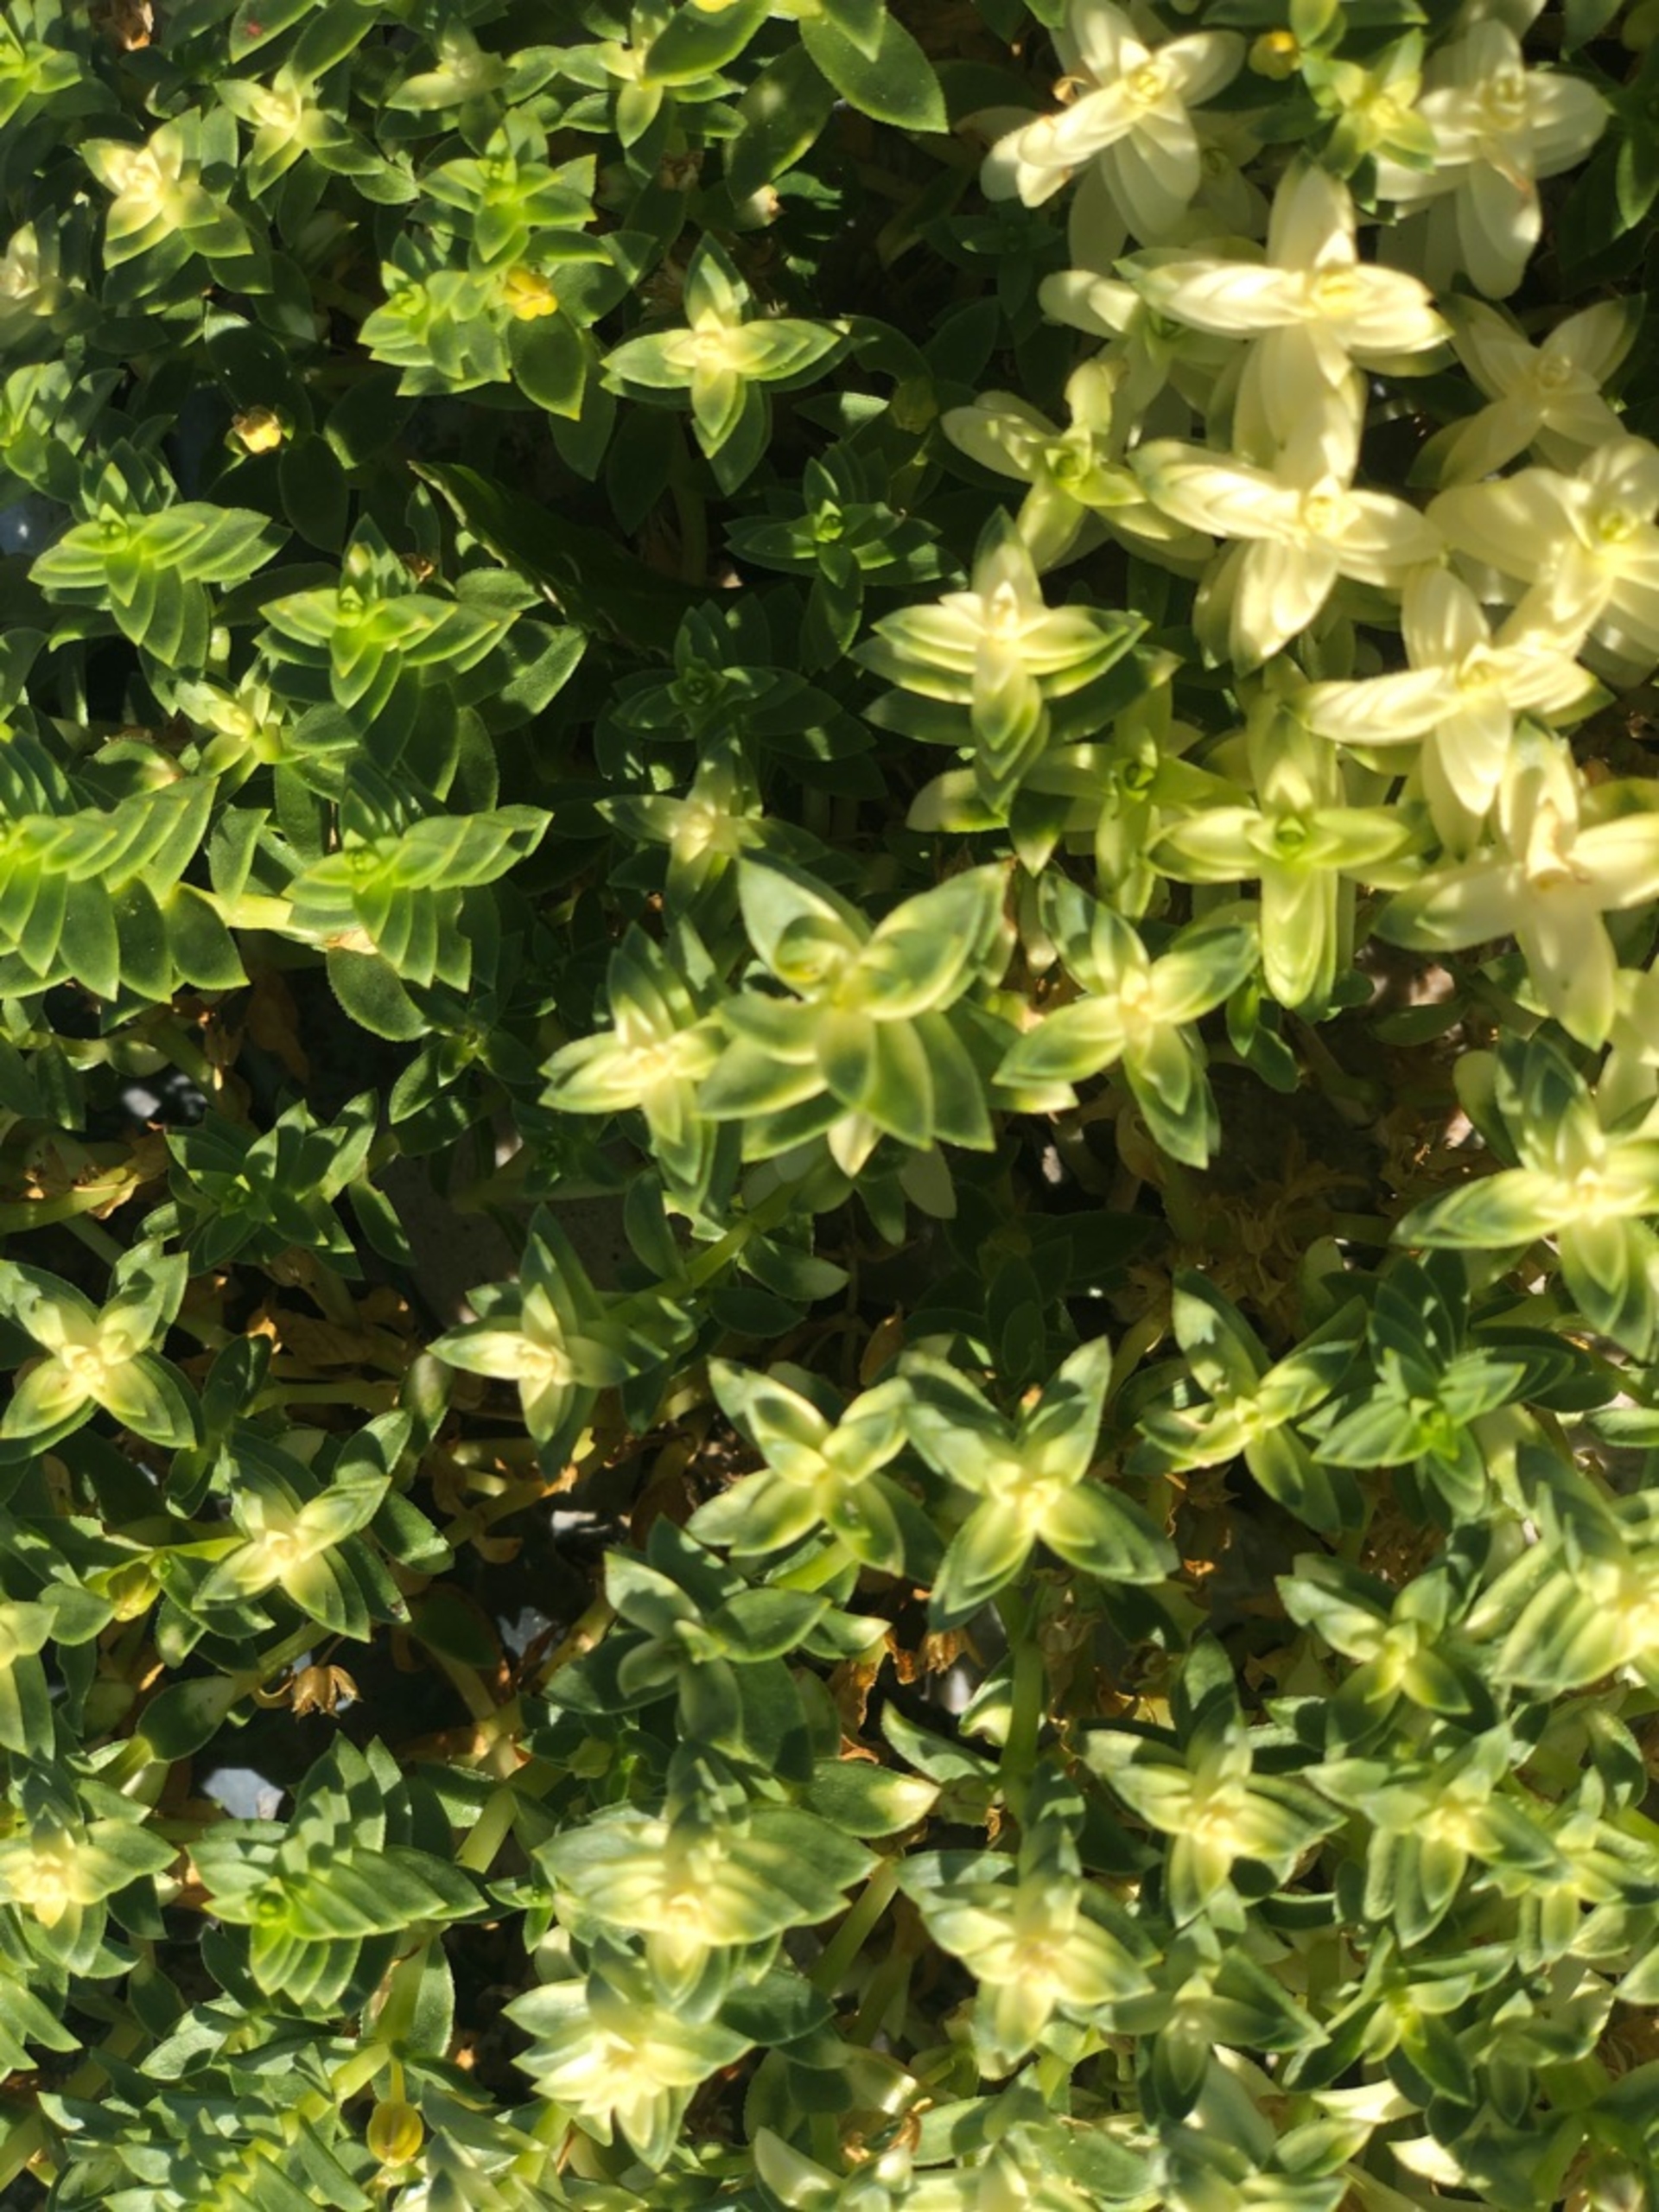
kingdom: Plantae
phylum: Tracheophyta
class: Magnoliopsida
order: Caryophyllales
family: Caryophyllaceae
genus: Honckenya
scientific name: Honckenya peploides
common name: Strandarve
